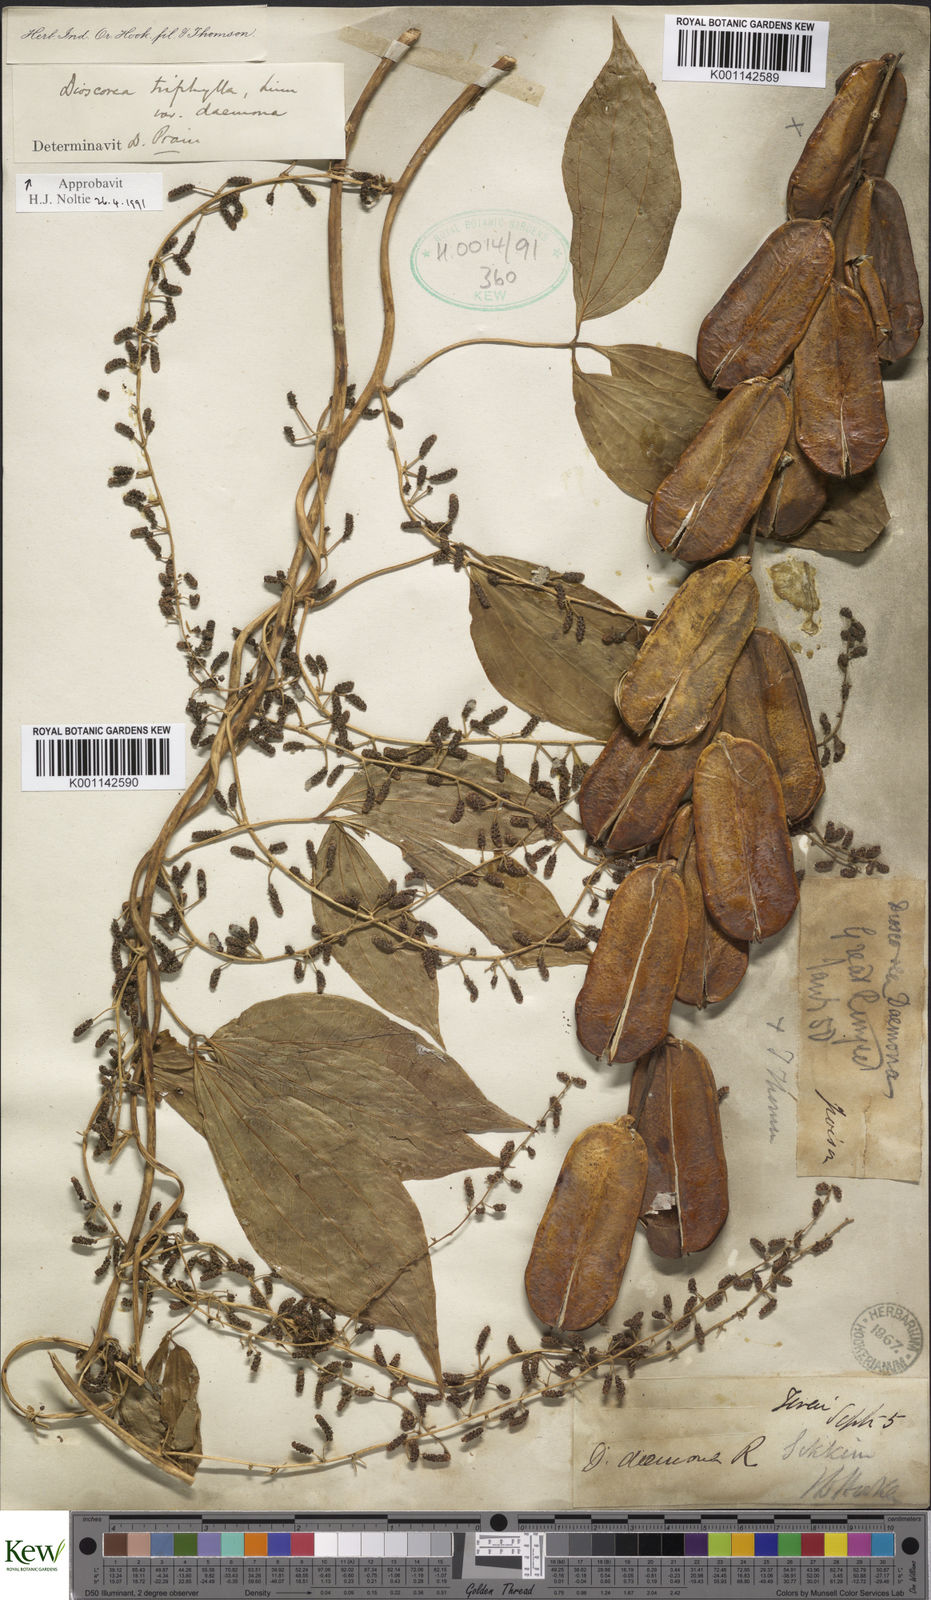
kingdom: Plantae
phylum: Tracheophyta
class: Liliopsida
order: Dioscoreales
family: Dioscoreaceae
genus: Dioscorea
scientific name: Dioscorea hispida
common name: Asiatic bitter yam
